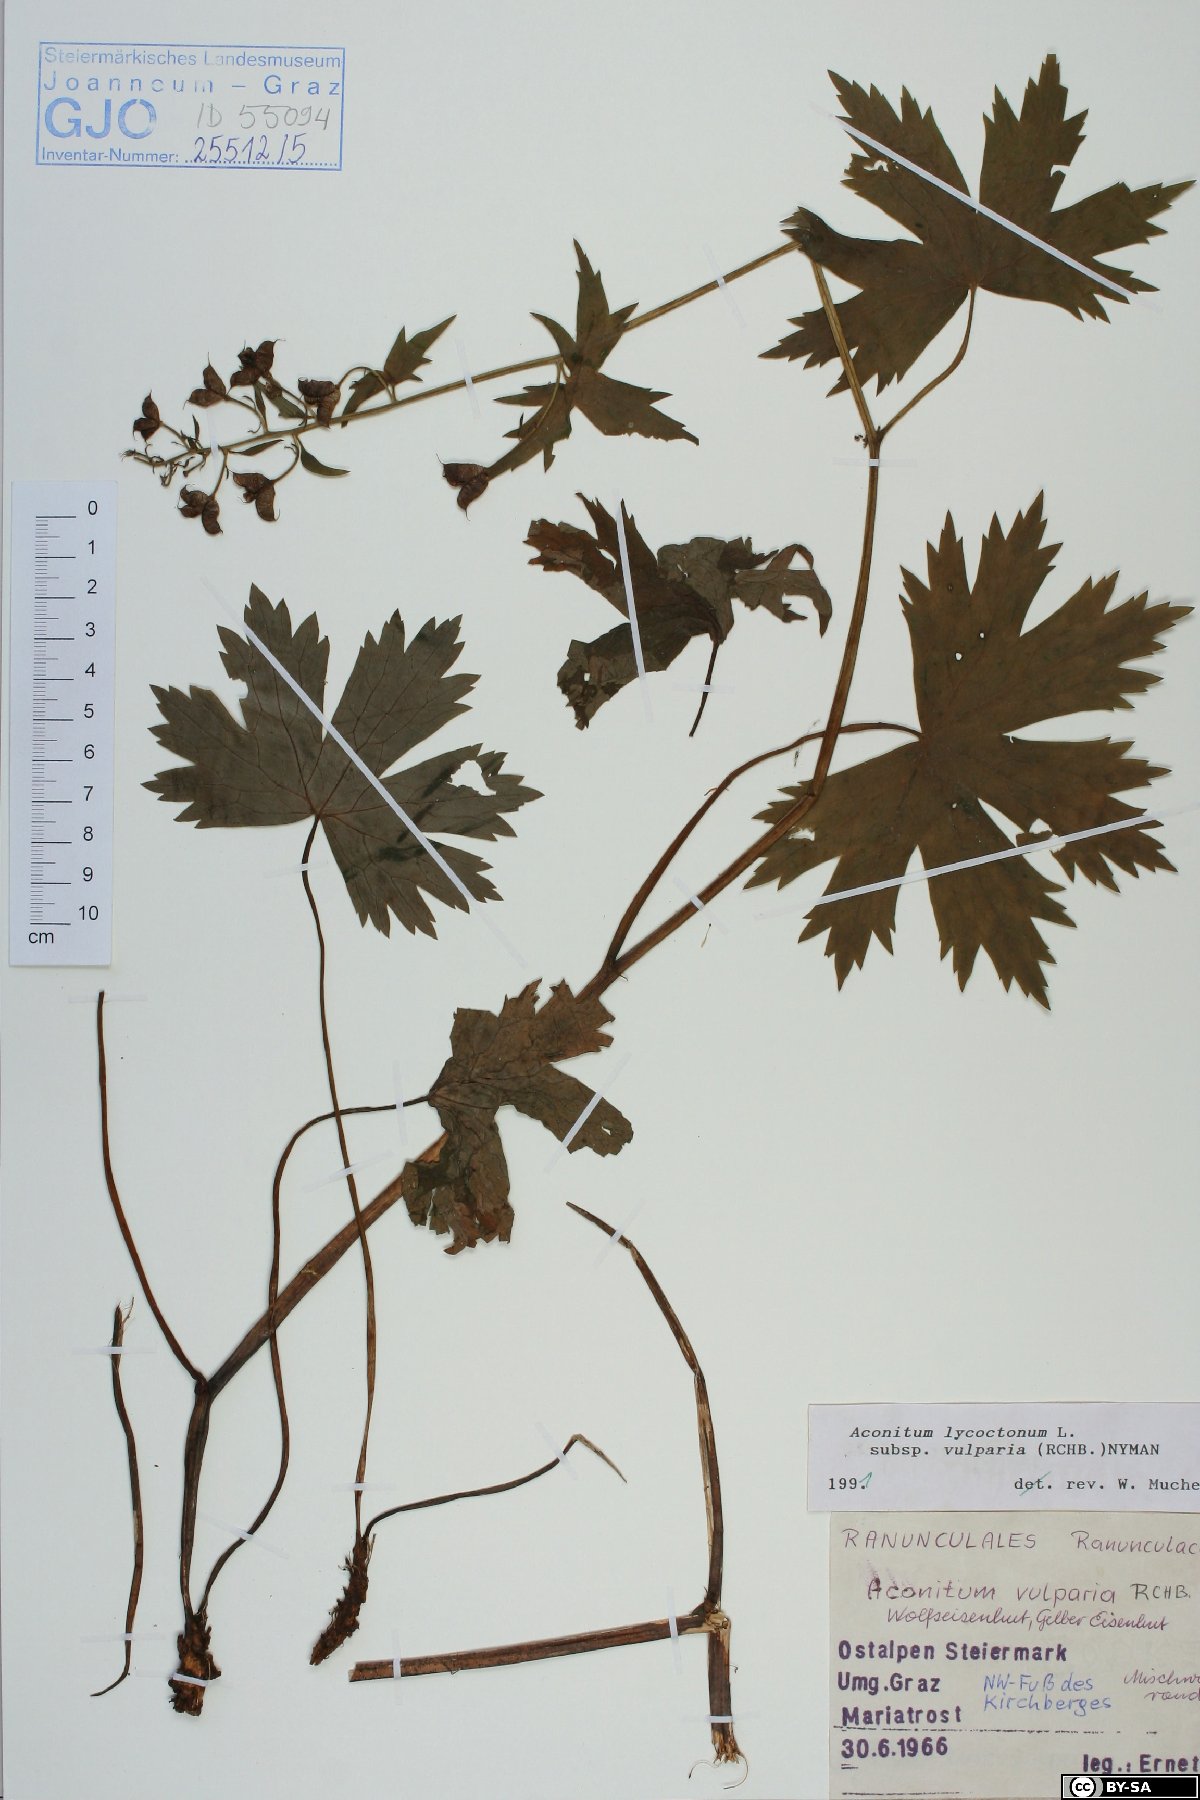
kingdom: Plantae
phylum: Tracheophyta
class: Magnoliopsida
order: Ranunculales
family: Ranunculaceae
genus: Aconitum
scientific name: Aconitum lycoctonum
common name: Wolf's-bane
